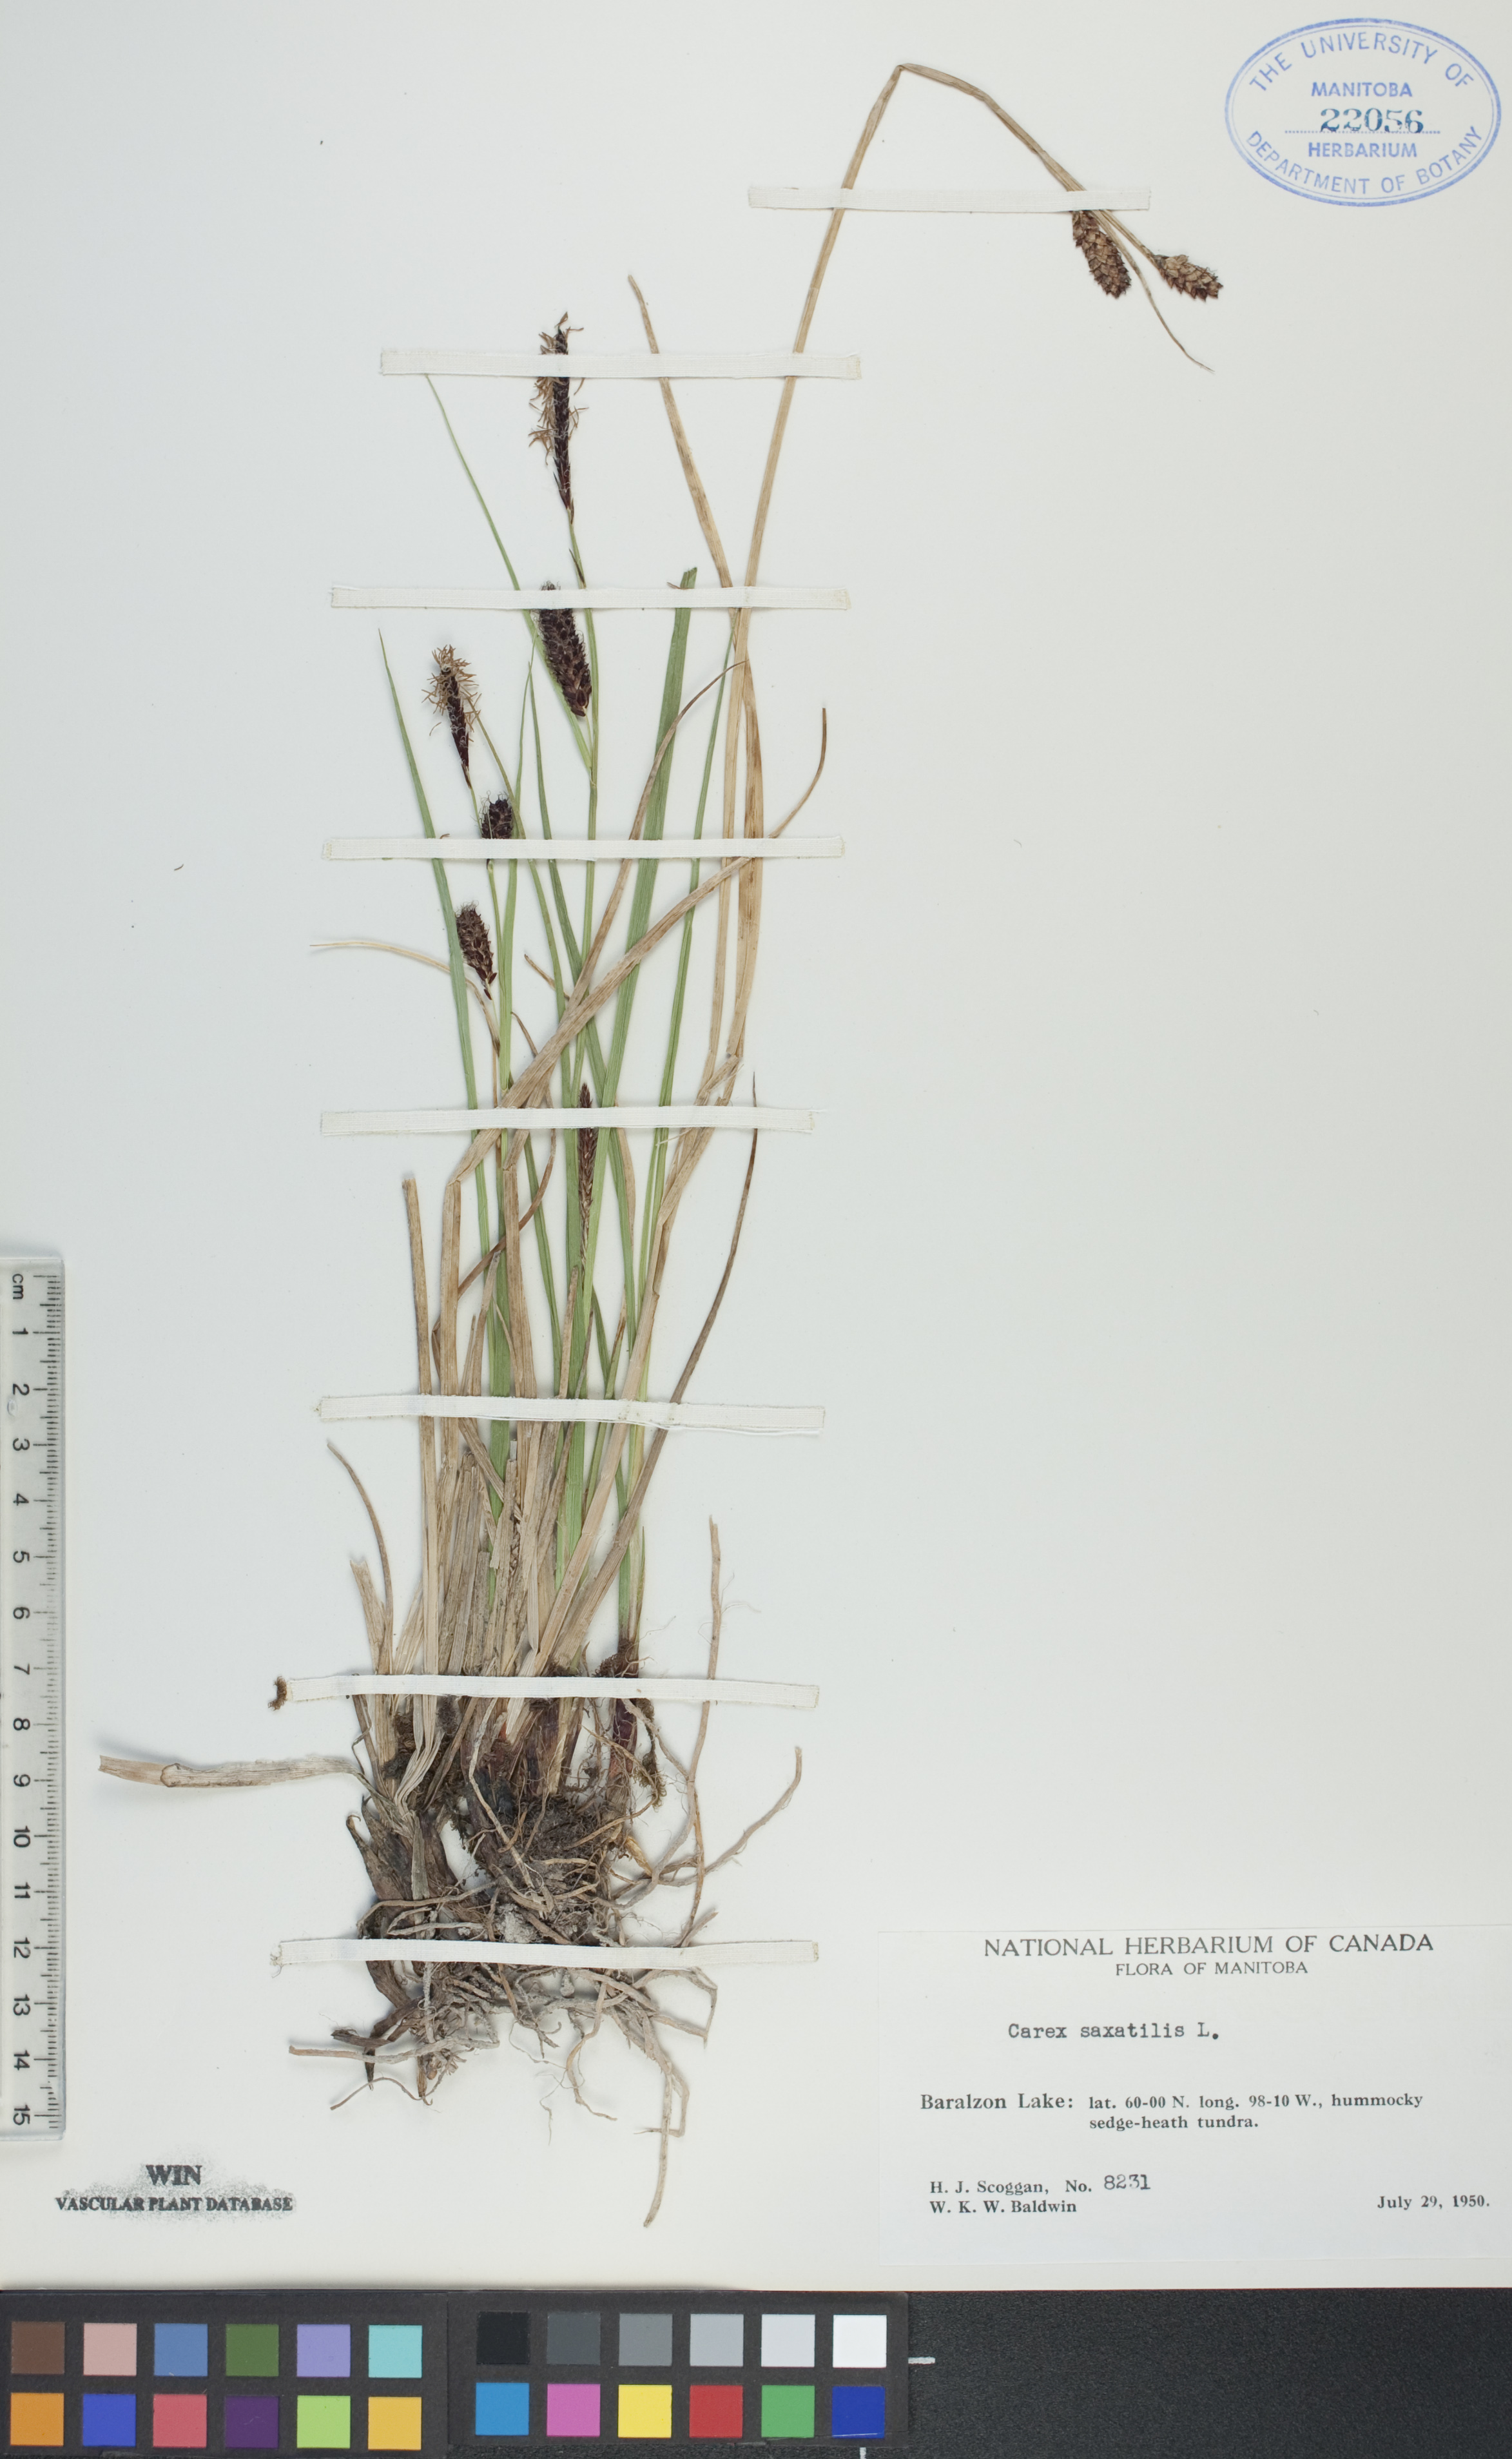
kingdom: Plantae
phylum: Tracheophyta
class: Liliopsida
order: Poales
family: Cyperaceae
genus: Carex
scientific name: Carex saxatilis
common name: Russet sedge
